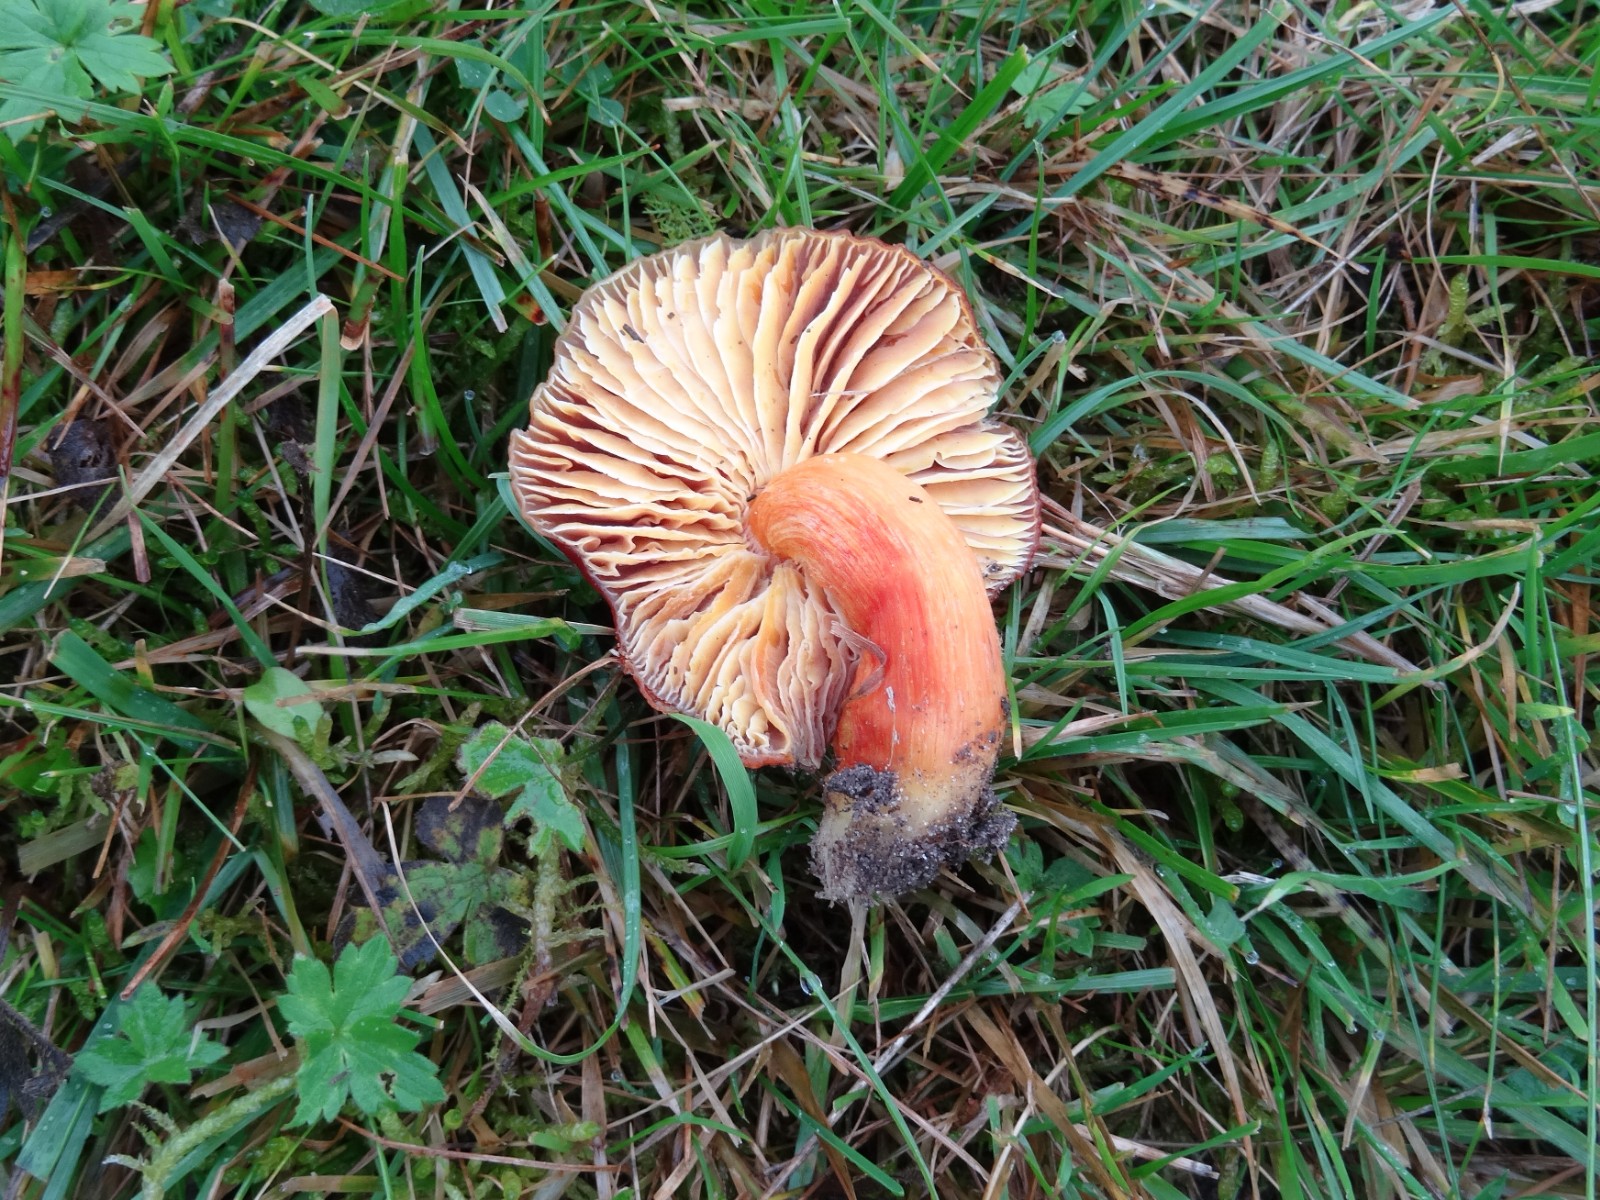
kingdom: Fungi
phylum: Basidiomycota
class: Agaricomycetes
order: Agaricales
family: Hygrophoraceae
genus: Hygrocybe
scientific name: Hygrocybe punicea
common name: skarlagen-vokshat
